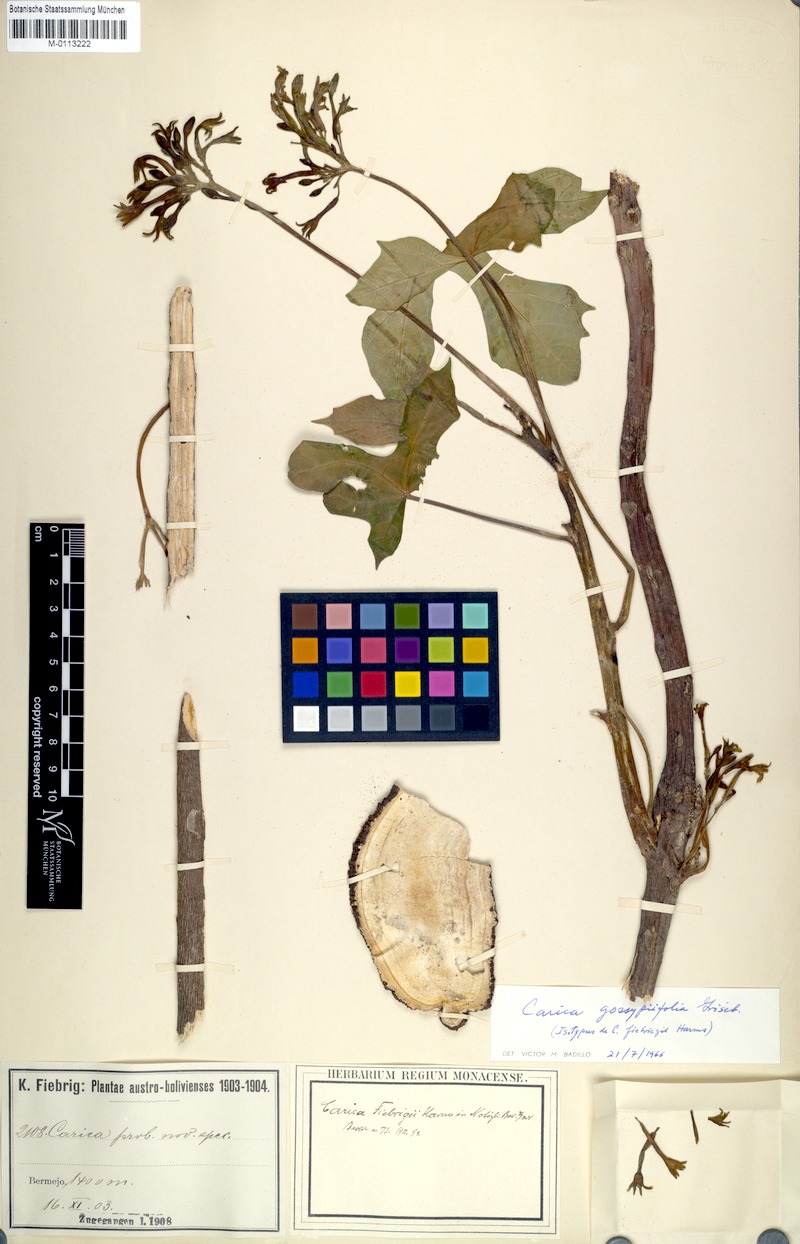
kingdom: Plantae
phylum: Tracheophyta
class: Magnoliopsida
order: Brassicales
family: Caricaceae
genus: Vasconcellea
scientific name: Vasconcellea glandulosa
